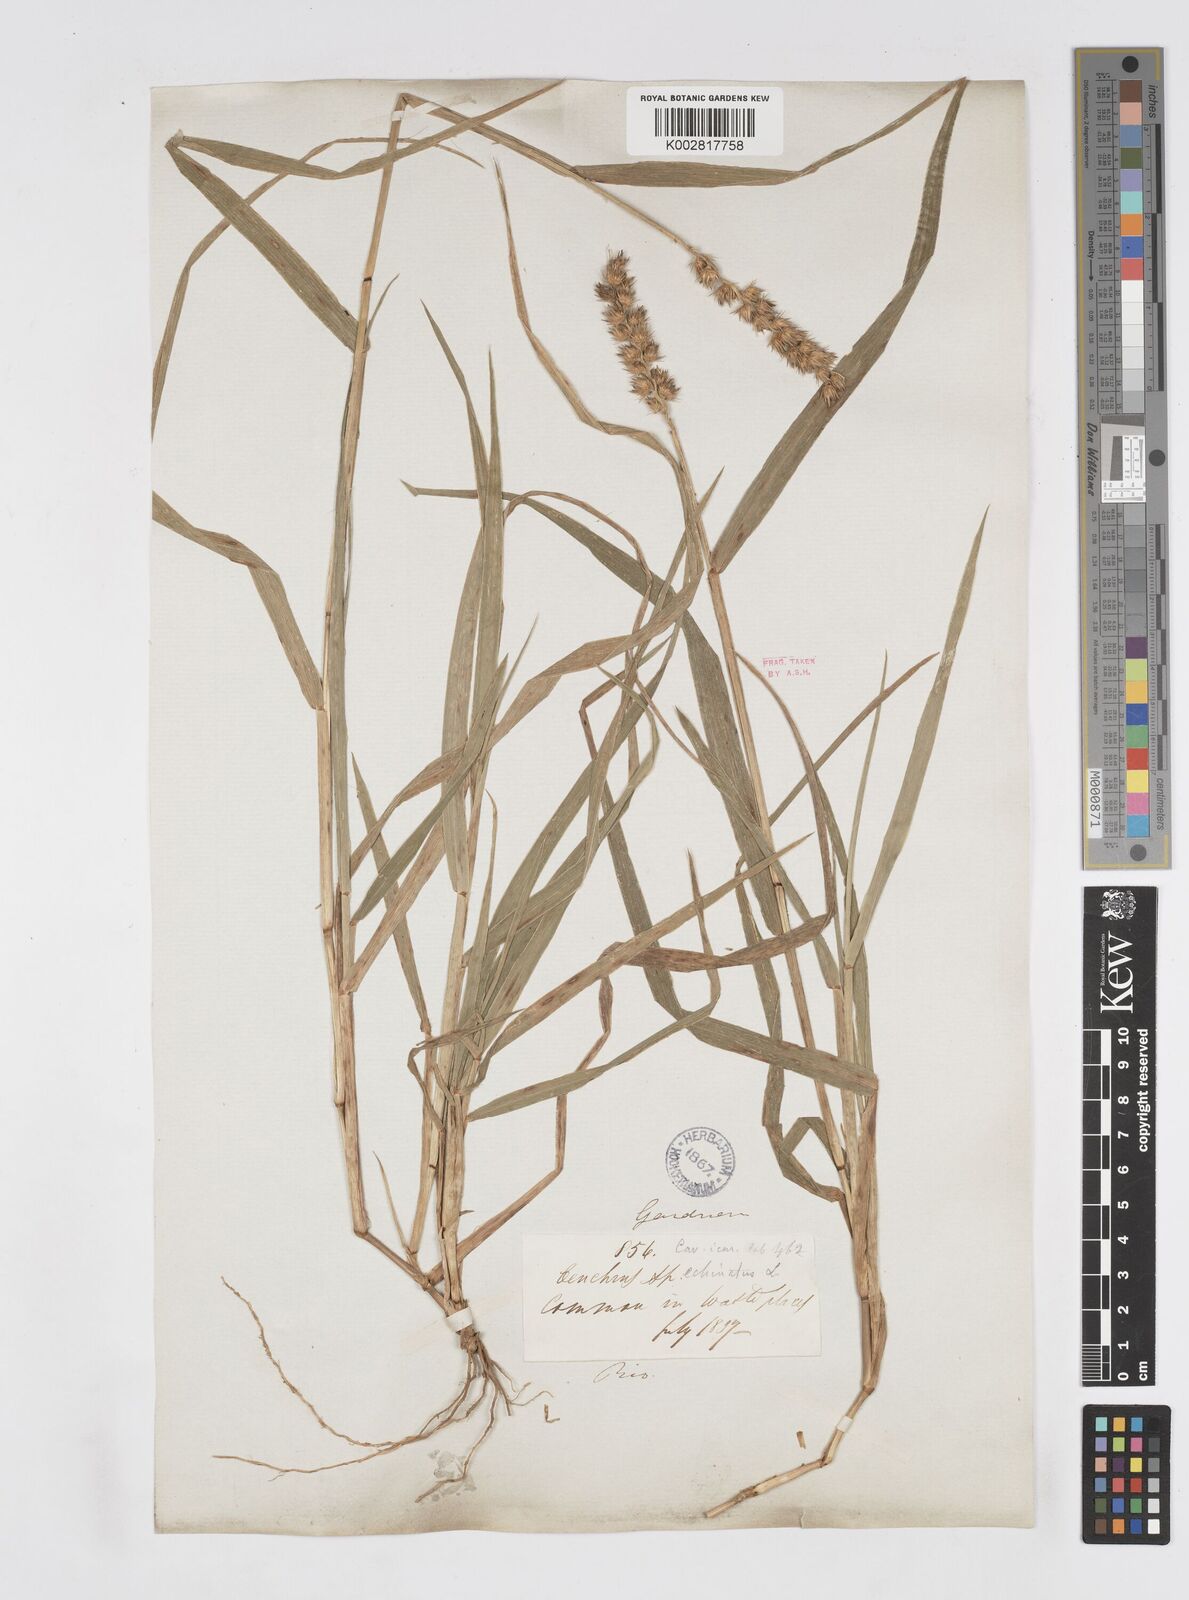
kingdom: Plantae
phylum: Tracheophyta
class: Liliopsida
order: Poales
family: Poaceae
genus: Cenchrus
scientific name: Cenchrus
